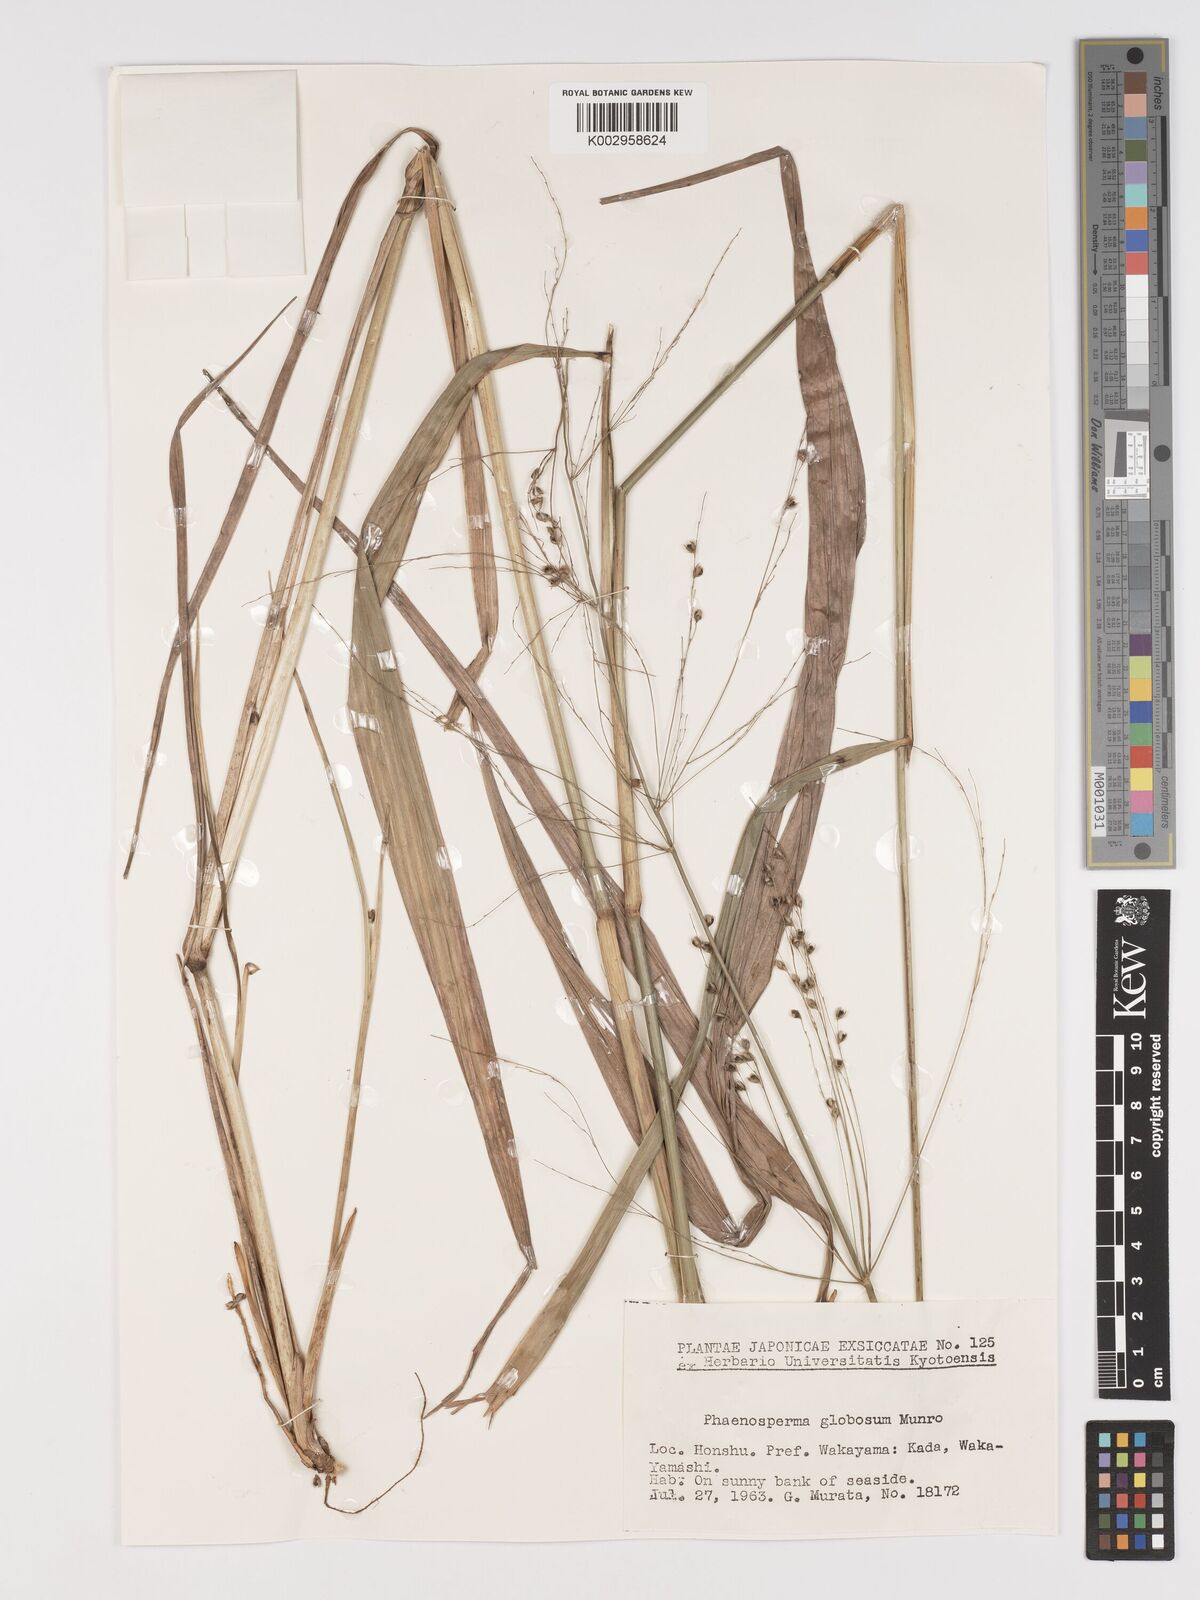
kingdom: Plantae
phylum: Tracheophyta
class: Liliopsida
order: Poales
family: Poaceae
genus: Phaenosperma
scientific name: Phaenosperma globosum
